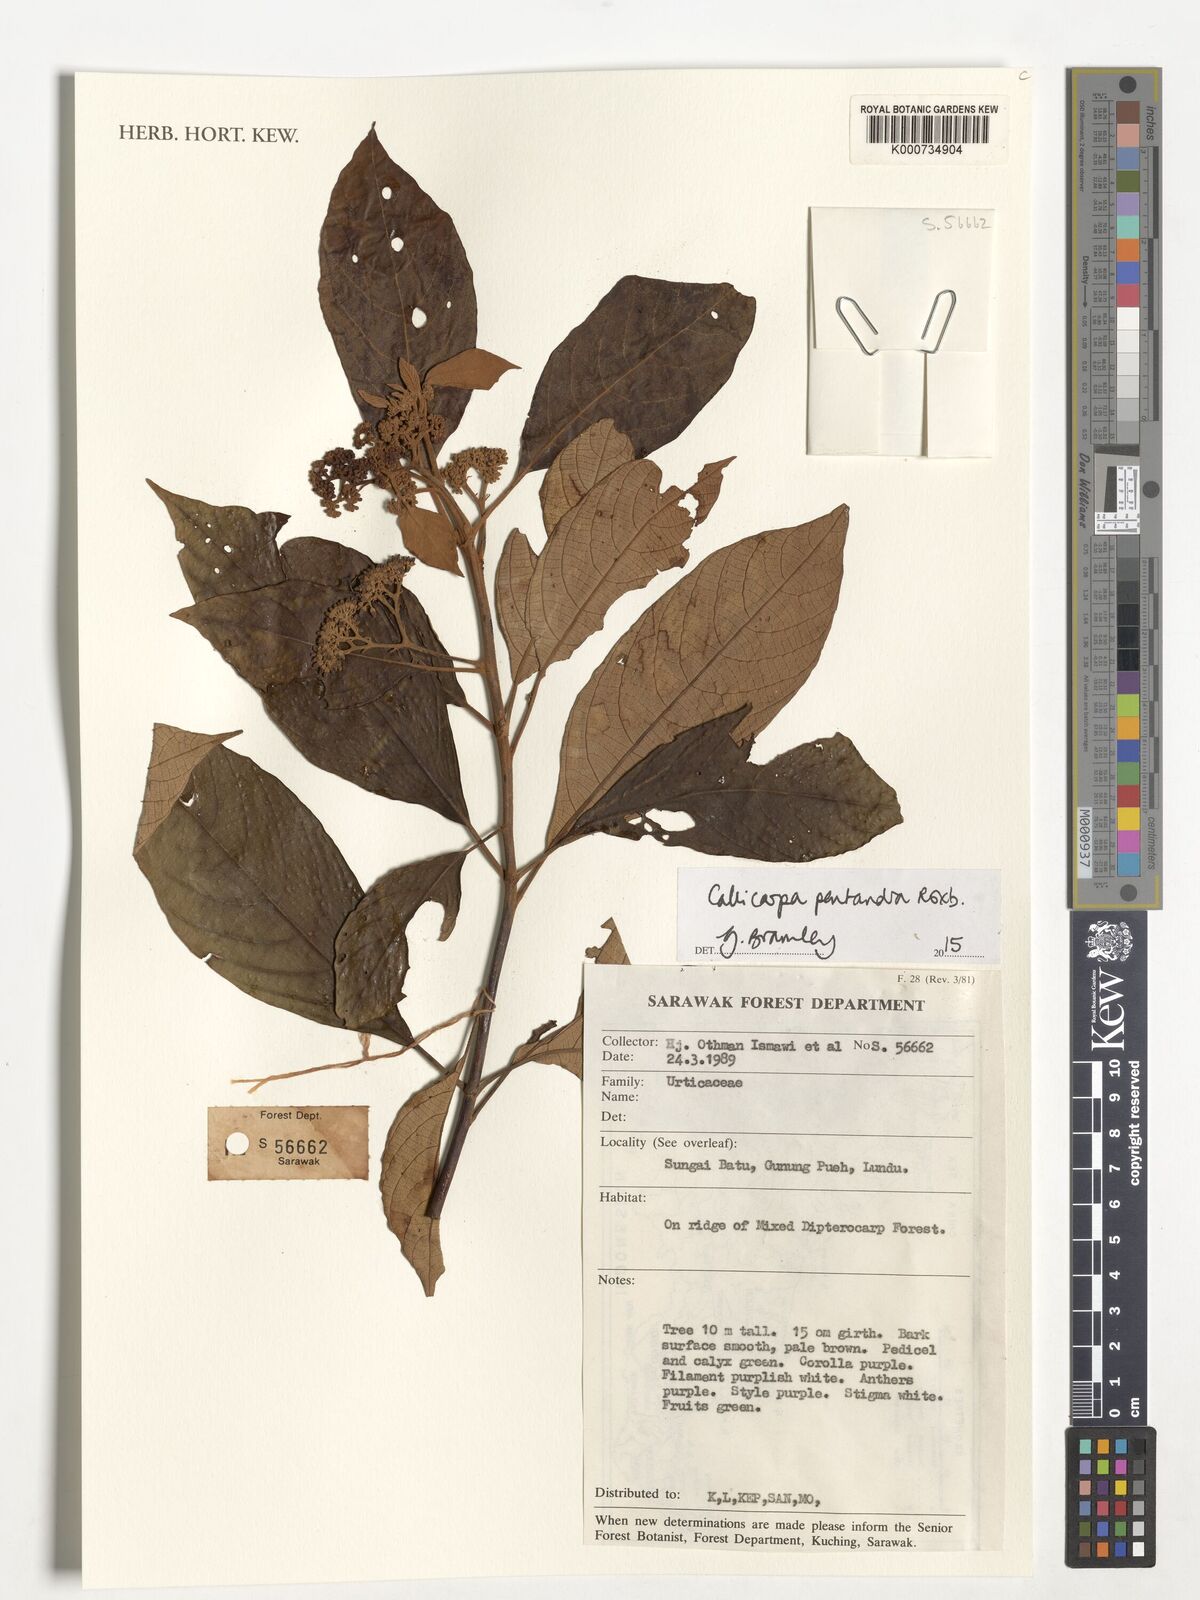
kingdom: Plantae
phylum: Tracheophyta
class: Magnoliopsida
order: Lamiales
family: Lamiaceae
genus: Callicarpa
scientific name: Callicarpa pentandra
